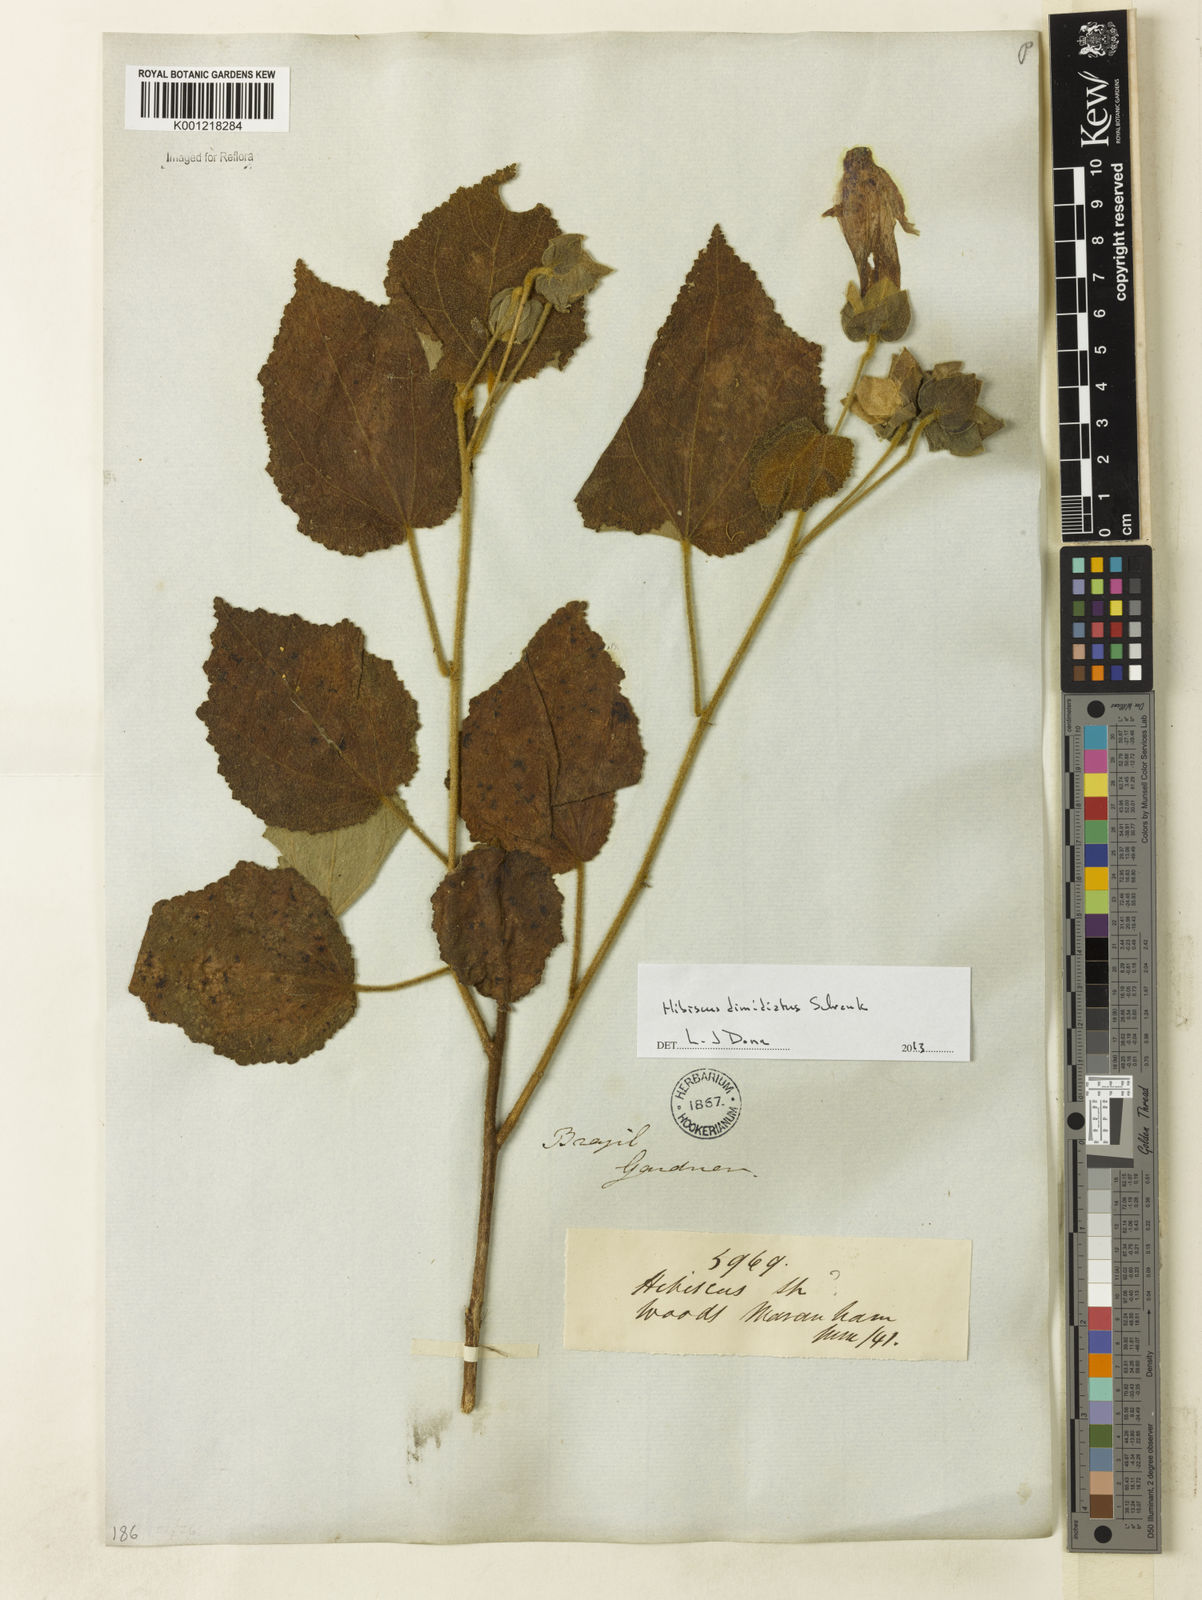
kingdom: Plantae
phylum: Tracheophyta
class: Magnoliopsida
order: Malvales
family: Malvaceae
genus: Hibiscus
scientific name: Hibiscus dimidiatus
